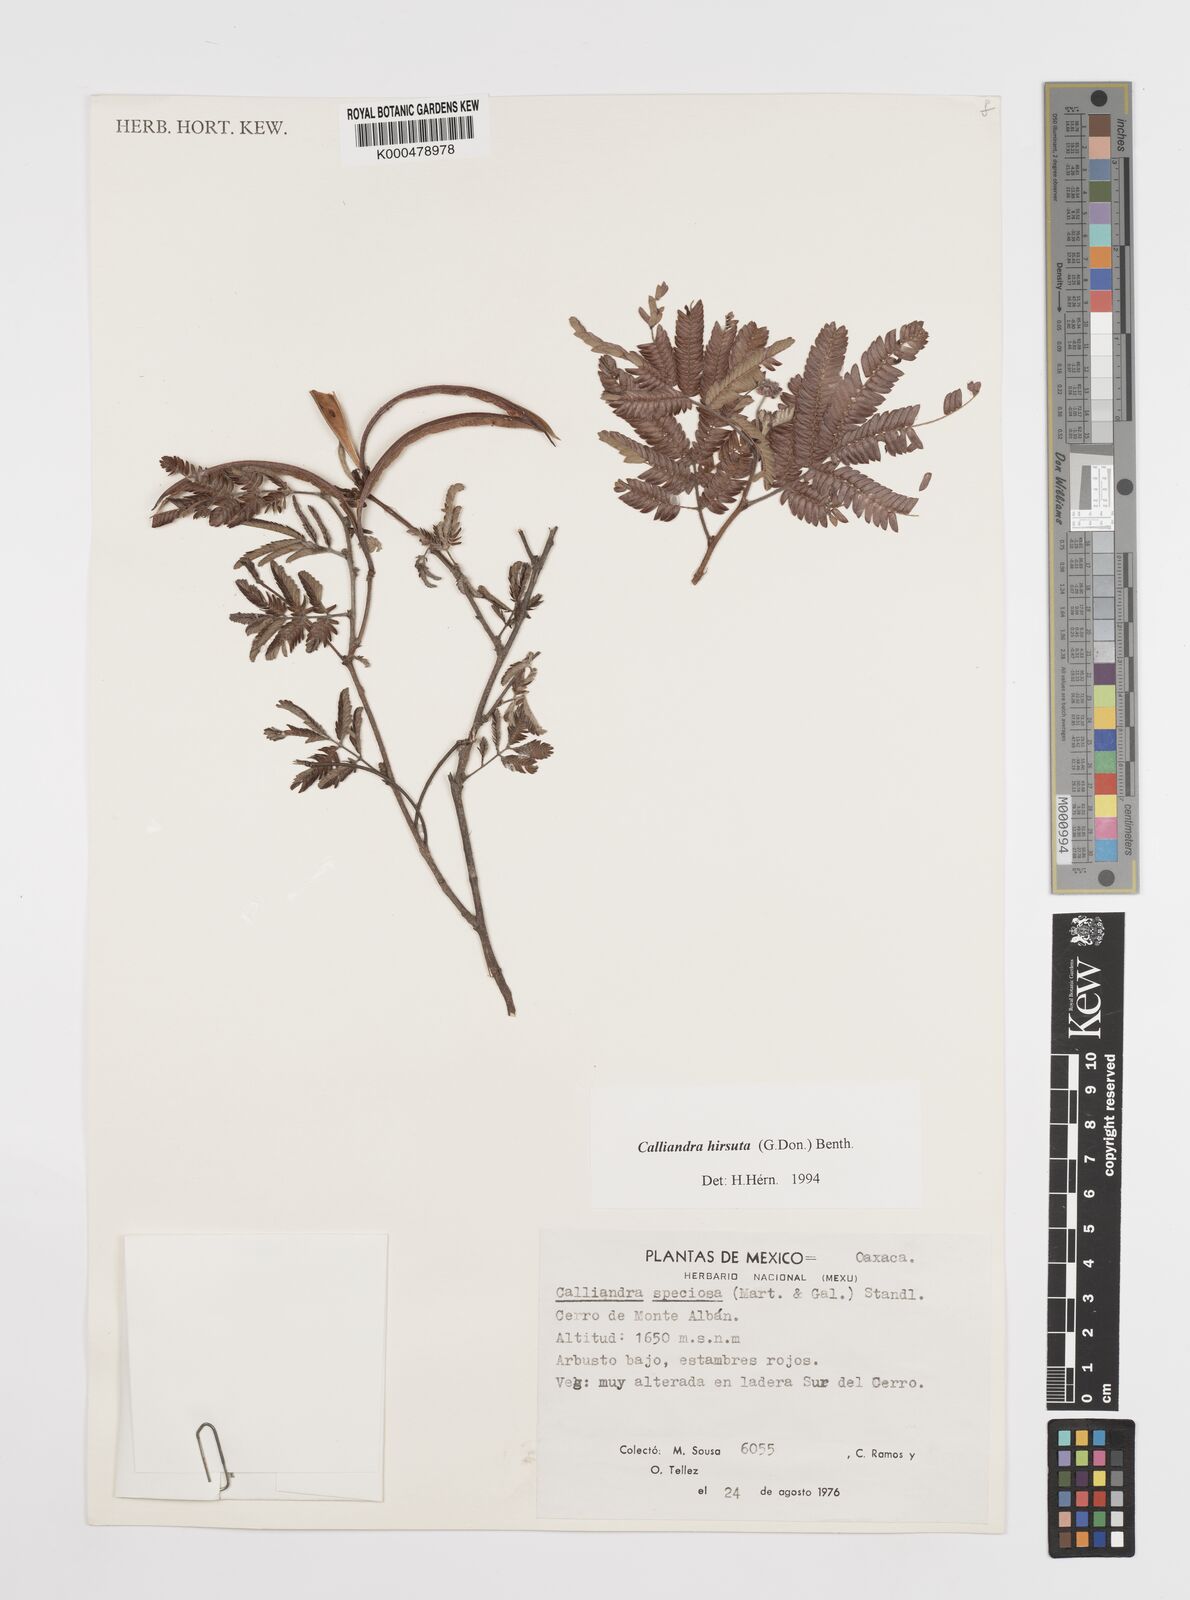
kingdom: Plantae
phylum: Tracheophyta
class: Magnoliopsida
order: Fabales
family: Fabaceae
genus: Calliandra
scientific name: Calliandra hirsuta
